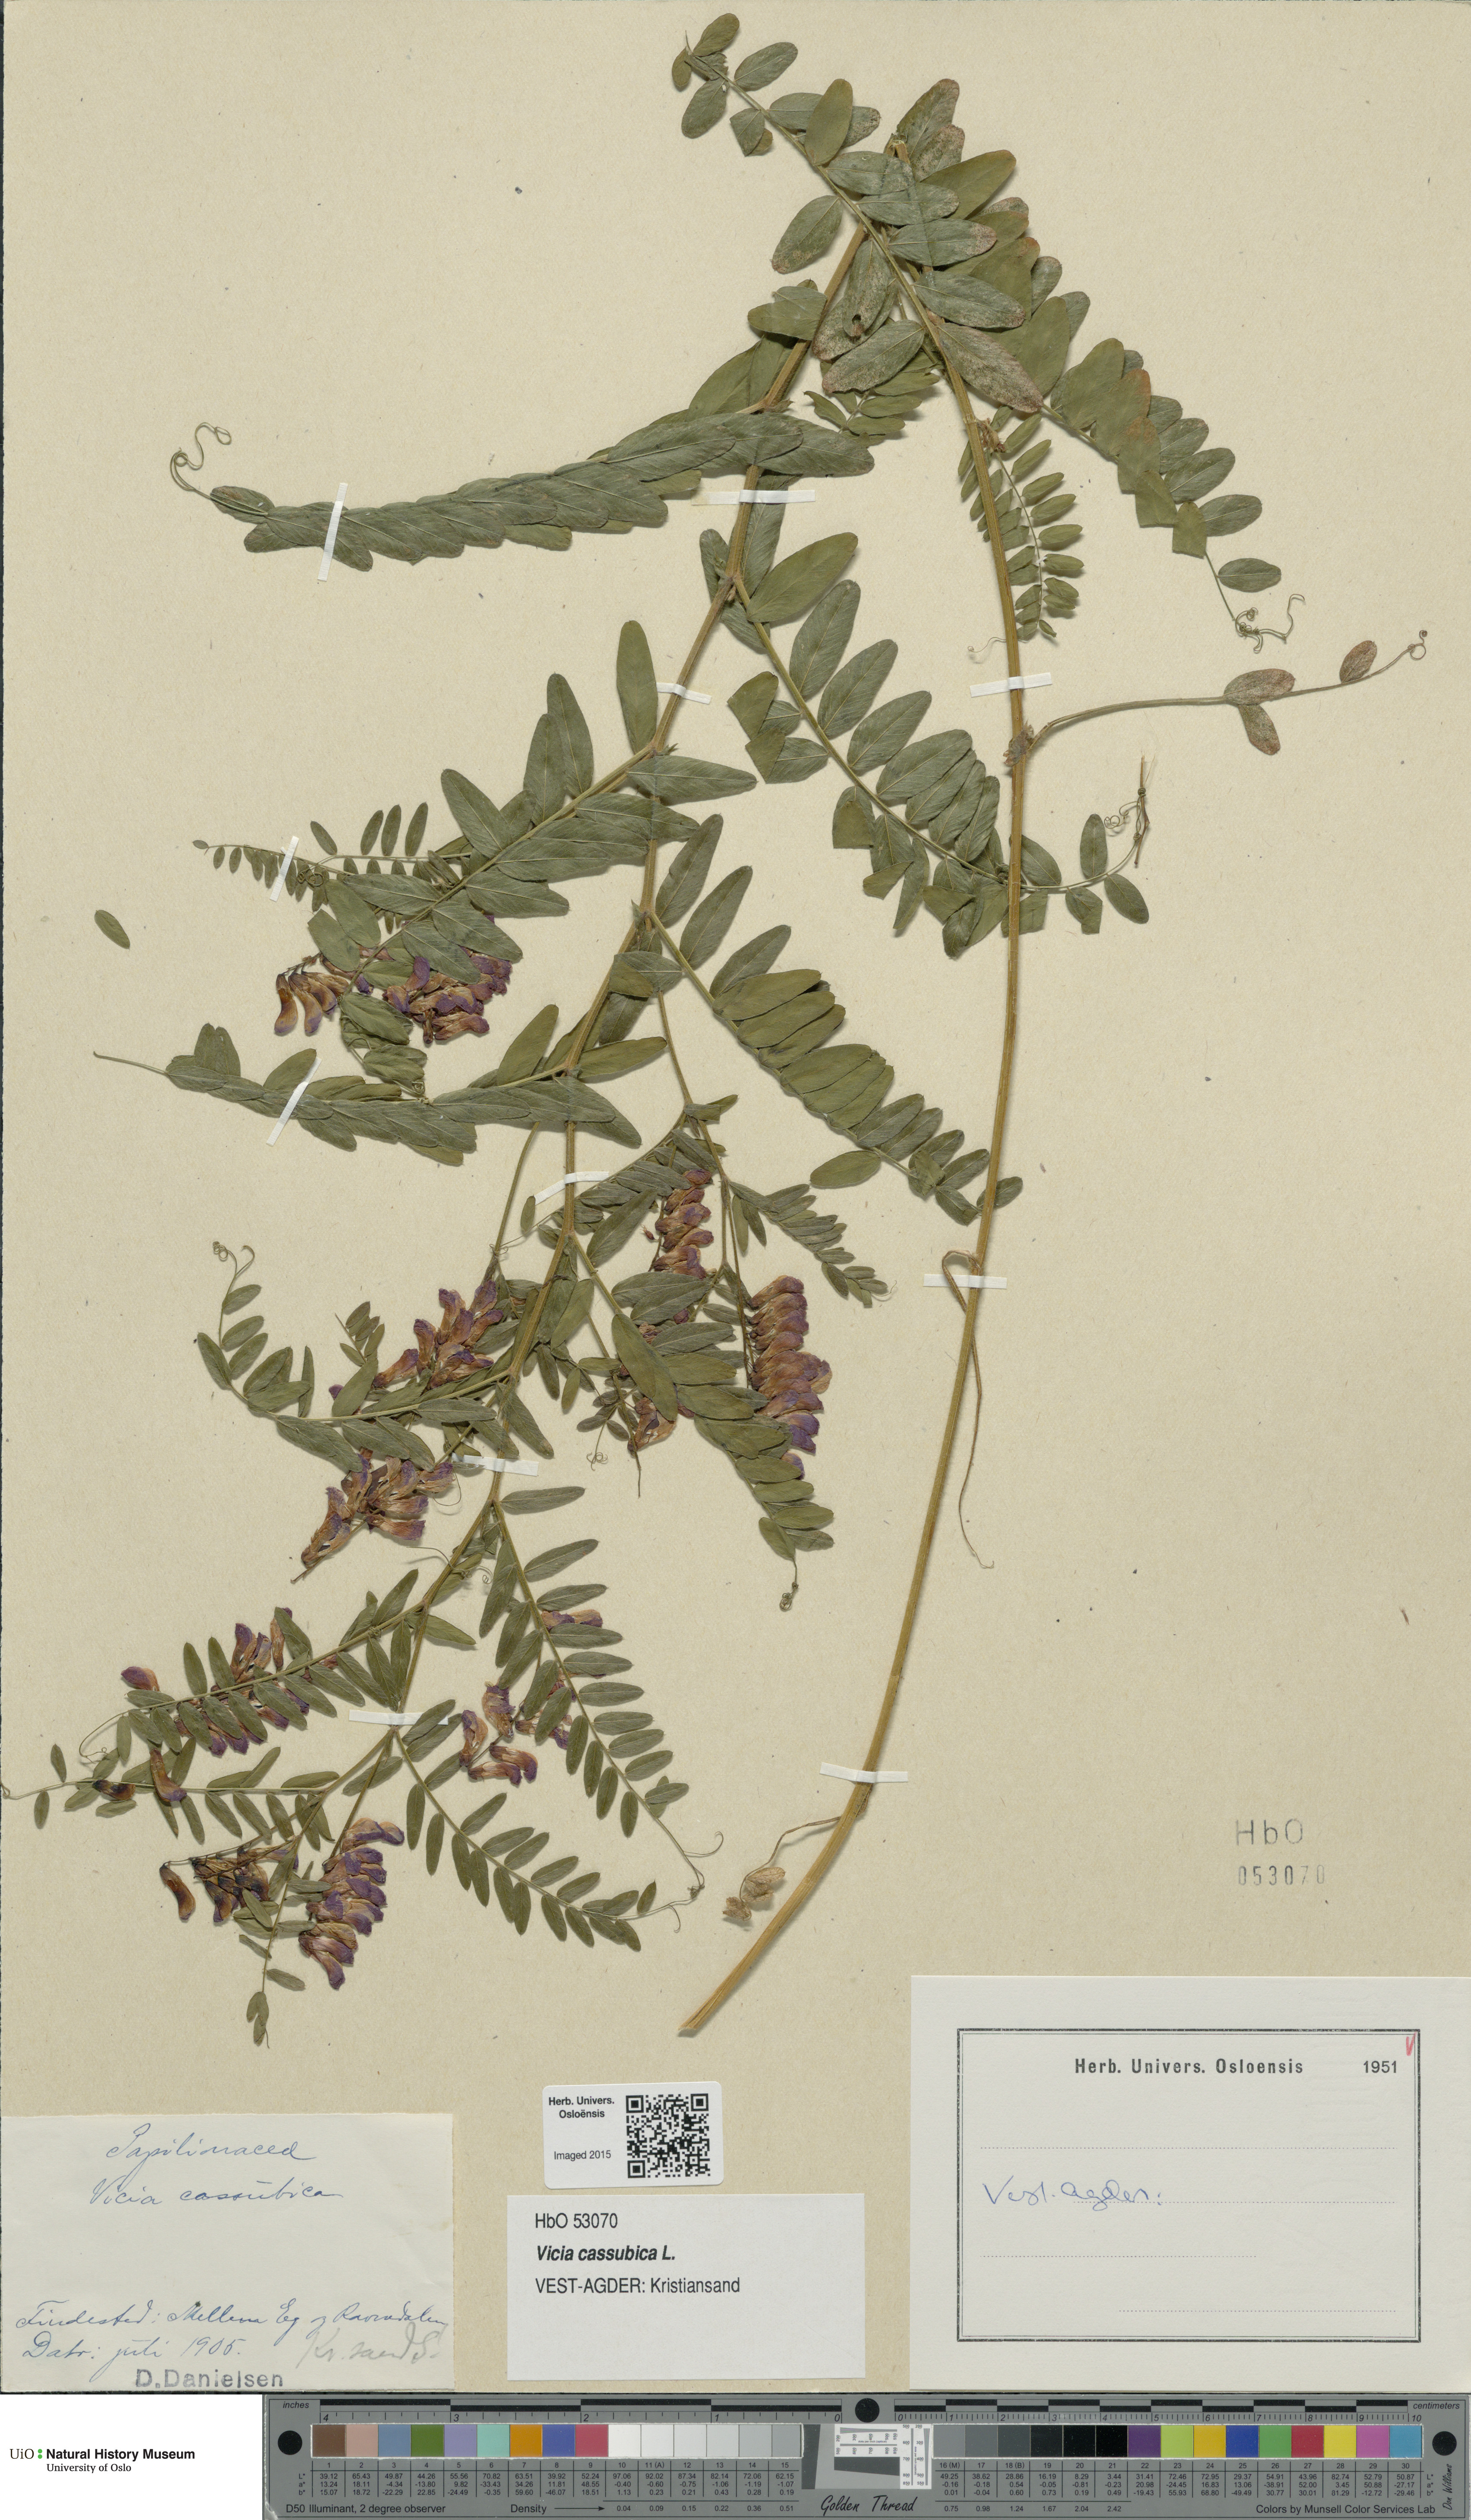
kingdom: Plantae
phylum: Tracheophyta
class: Magnoliopsida
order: Fabales
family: Fabaceae
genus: Vicia
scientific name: Vicia cassubica
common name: Danzig vetch
